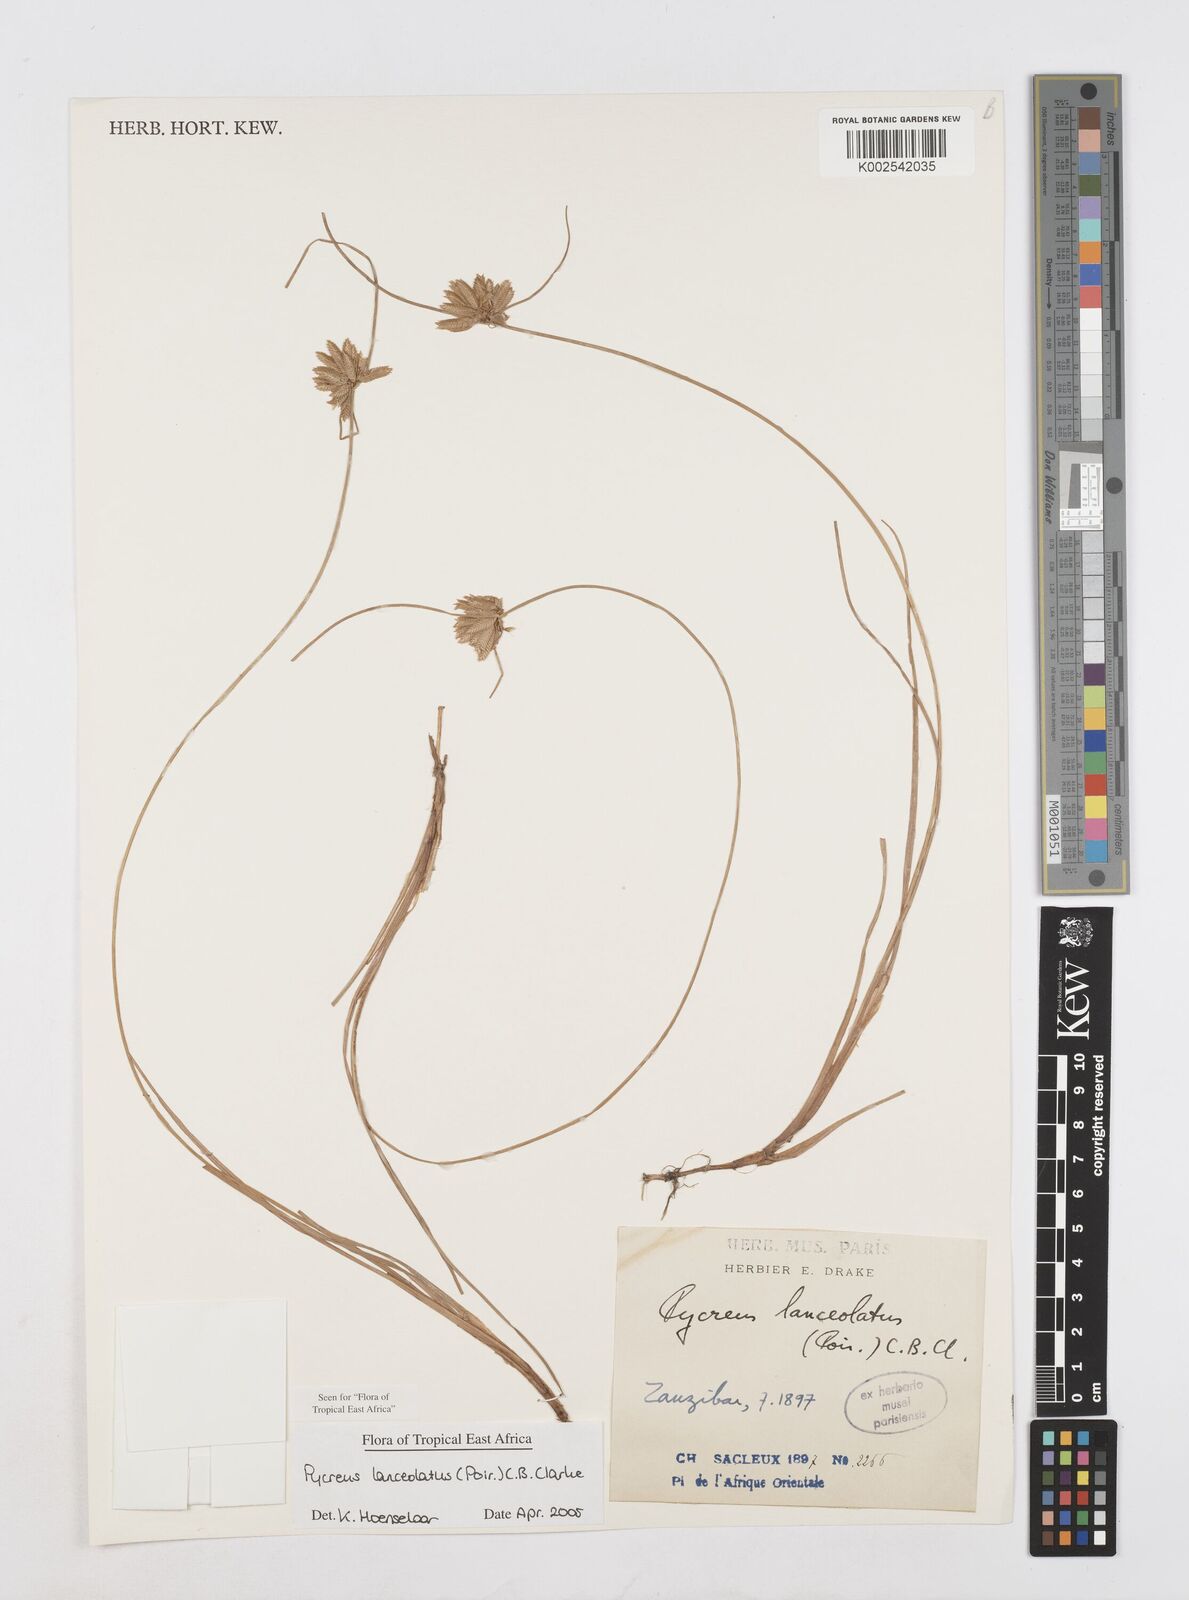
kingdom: Plantae
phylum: Tracheophyta
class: Liliopsida
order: Poales
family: Cyperaceae
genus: Cyperus
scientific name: Cyperus lanceolatus
